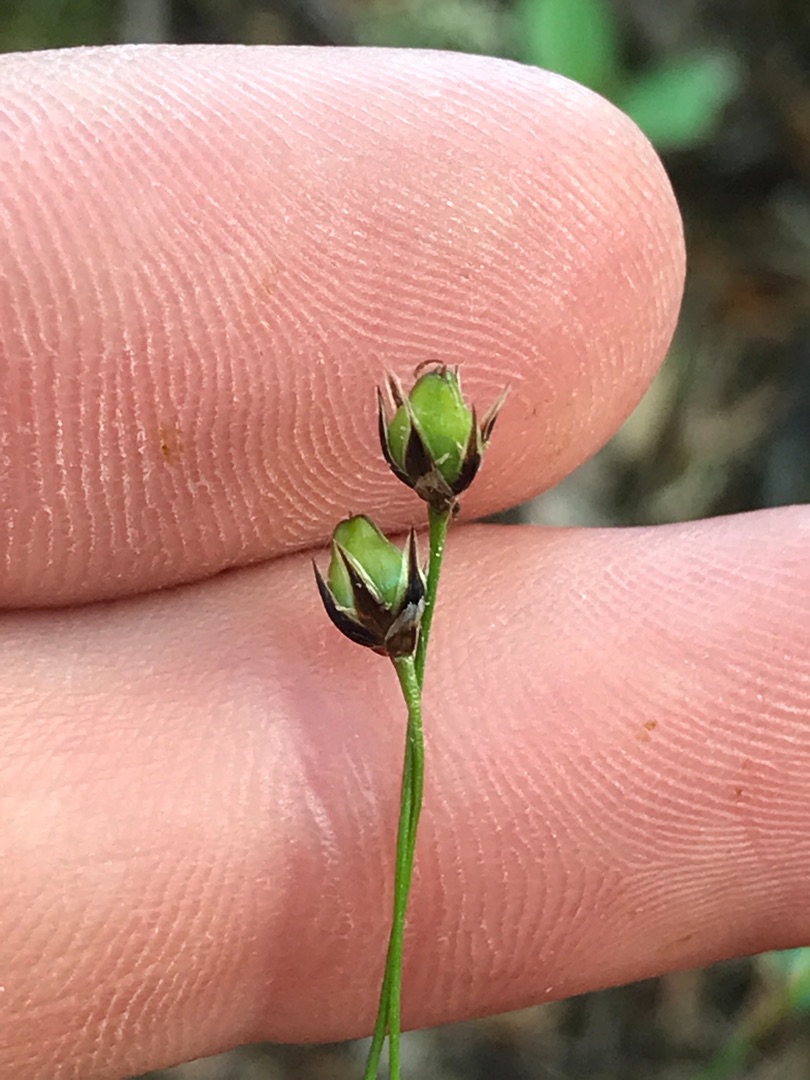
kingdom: Plantae
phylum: Tracheophyta
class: Liliopsida
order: Poales
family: Juncaceae
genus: Luzula
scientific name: Luzula pilosa
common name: Håret frytle
